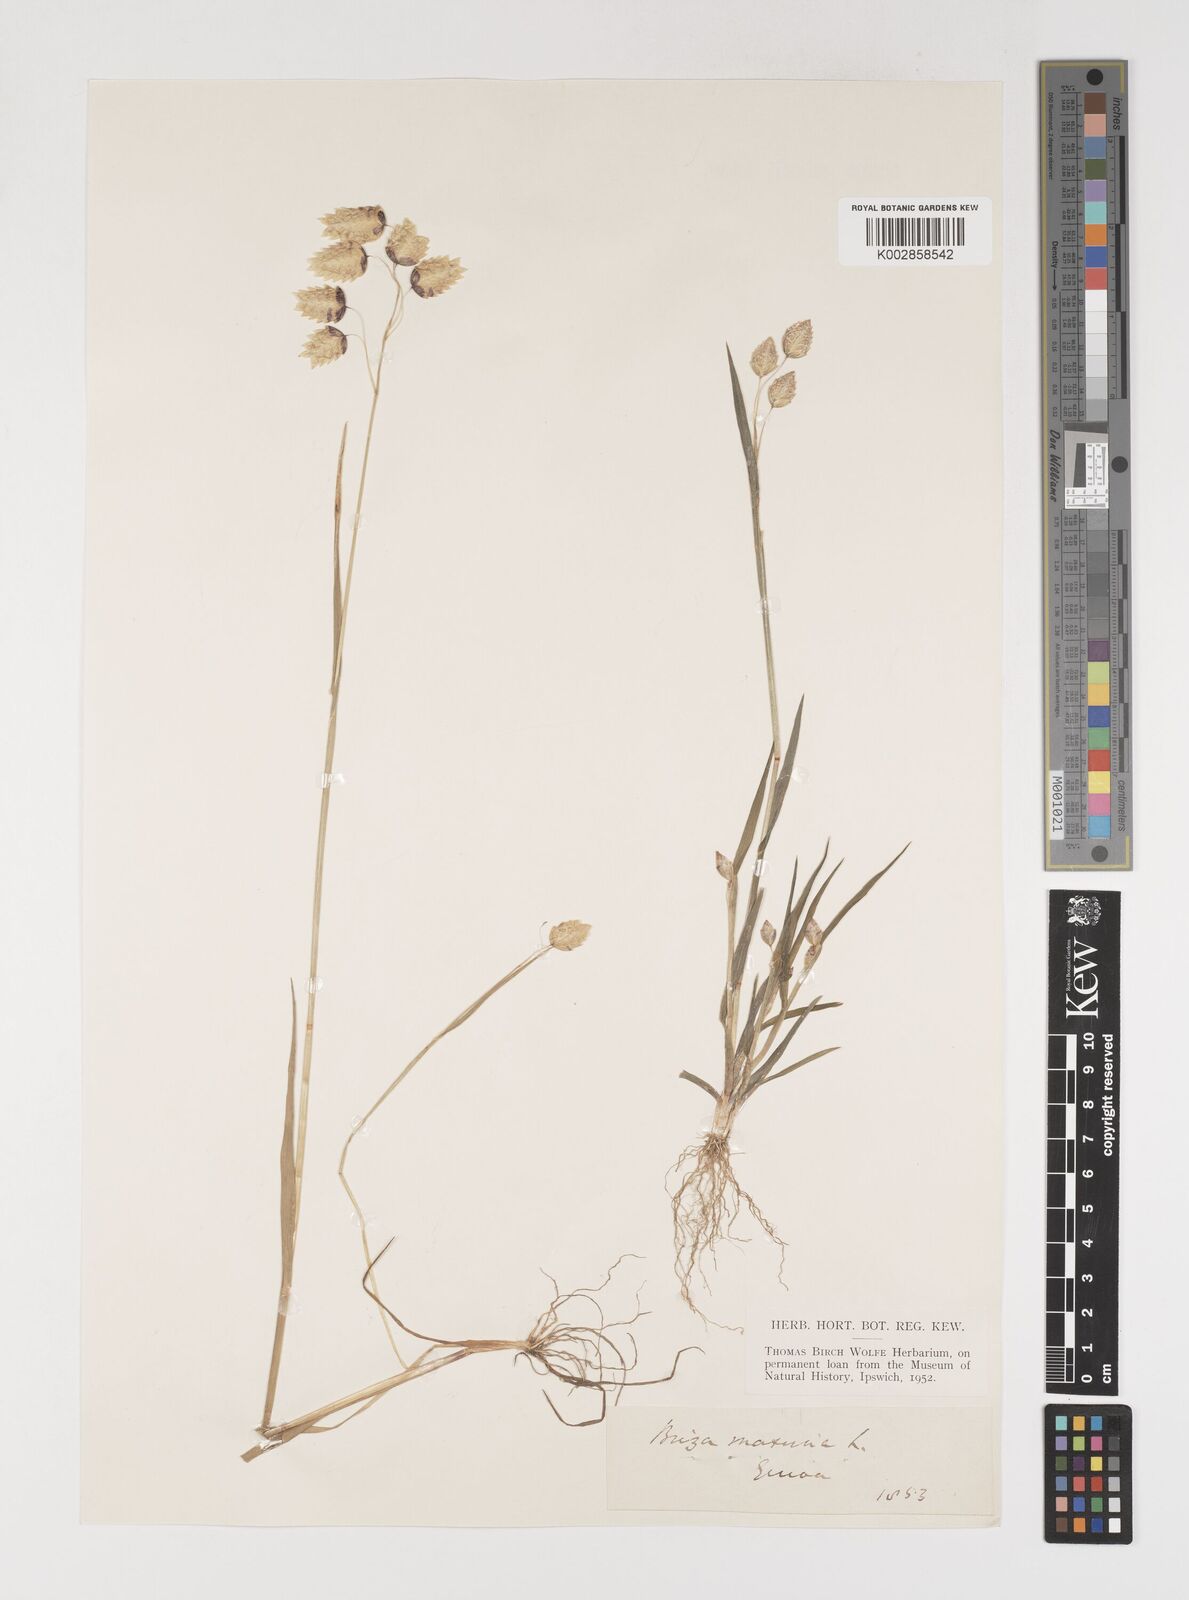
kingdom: Plantae
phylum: Tracheophyta
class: Liliopsida
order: Poales
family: Poaceae
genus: Briza
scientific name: Briza maxima
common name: Big quakinggrass
